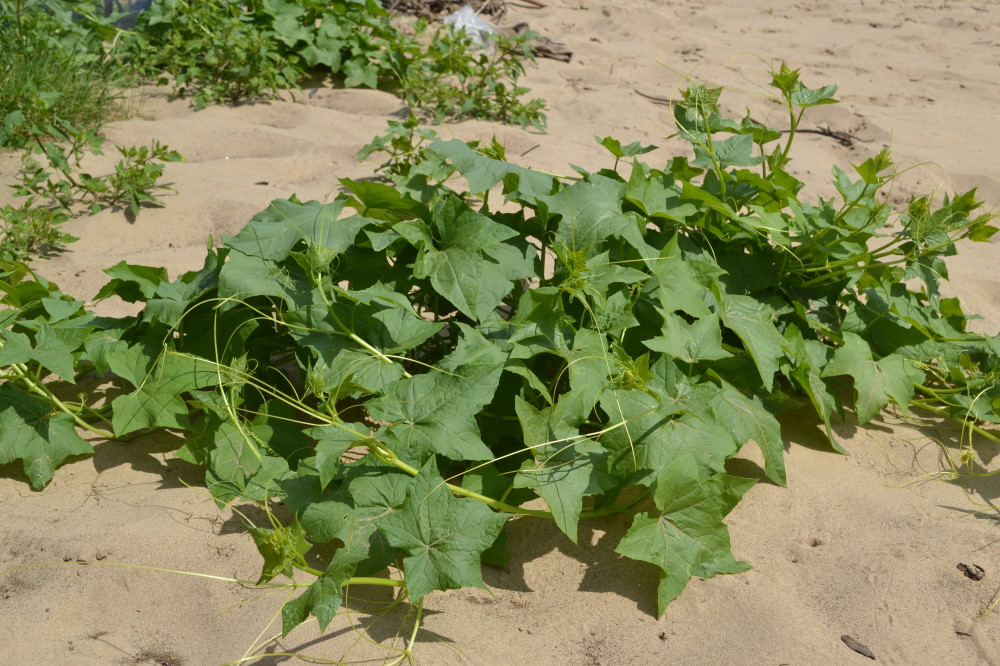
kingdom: Plantae
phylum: Tracheophyta
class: Magnoliopsida
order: Cucurbitales
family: Cucurbitaceae
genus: Echinocystis
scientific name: Echinocystis lobata
